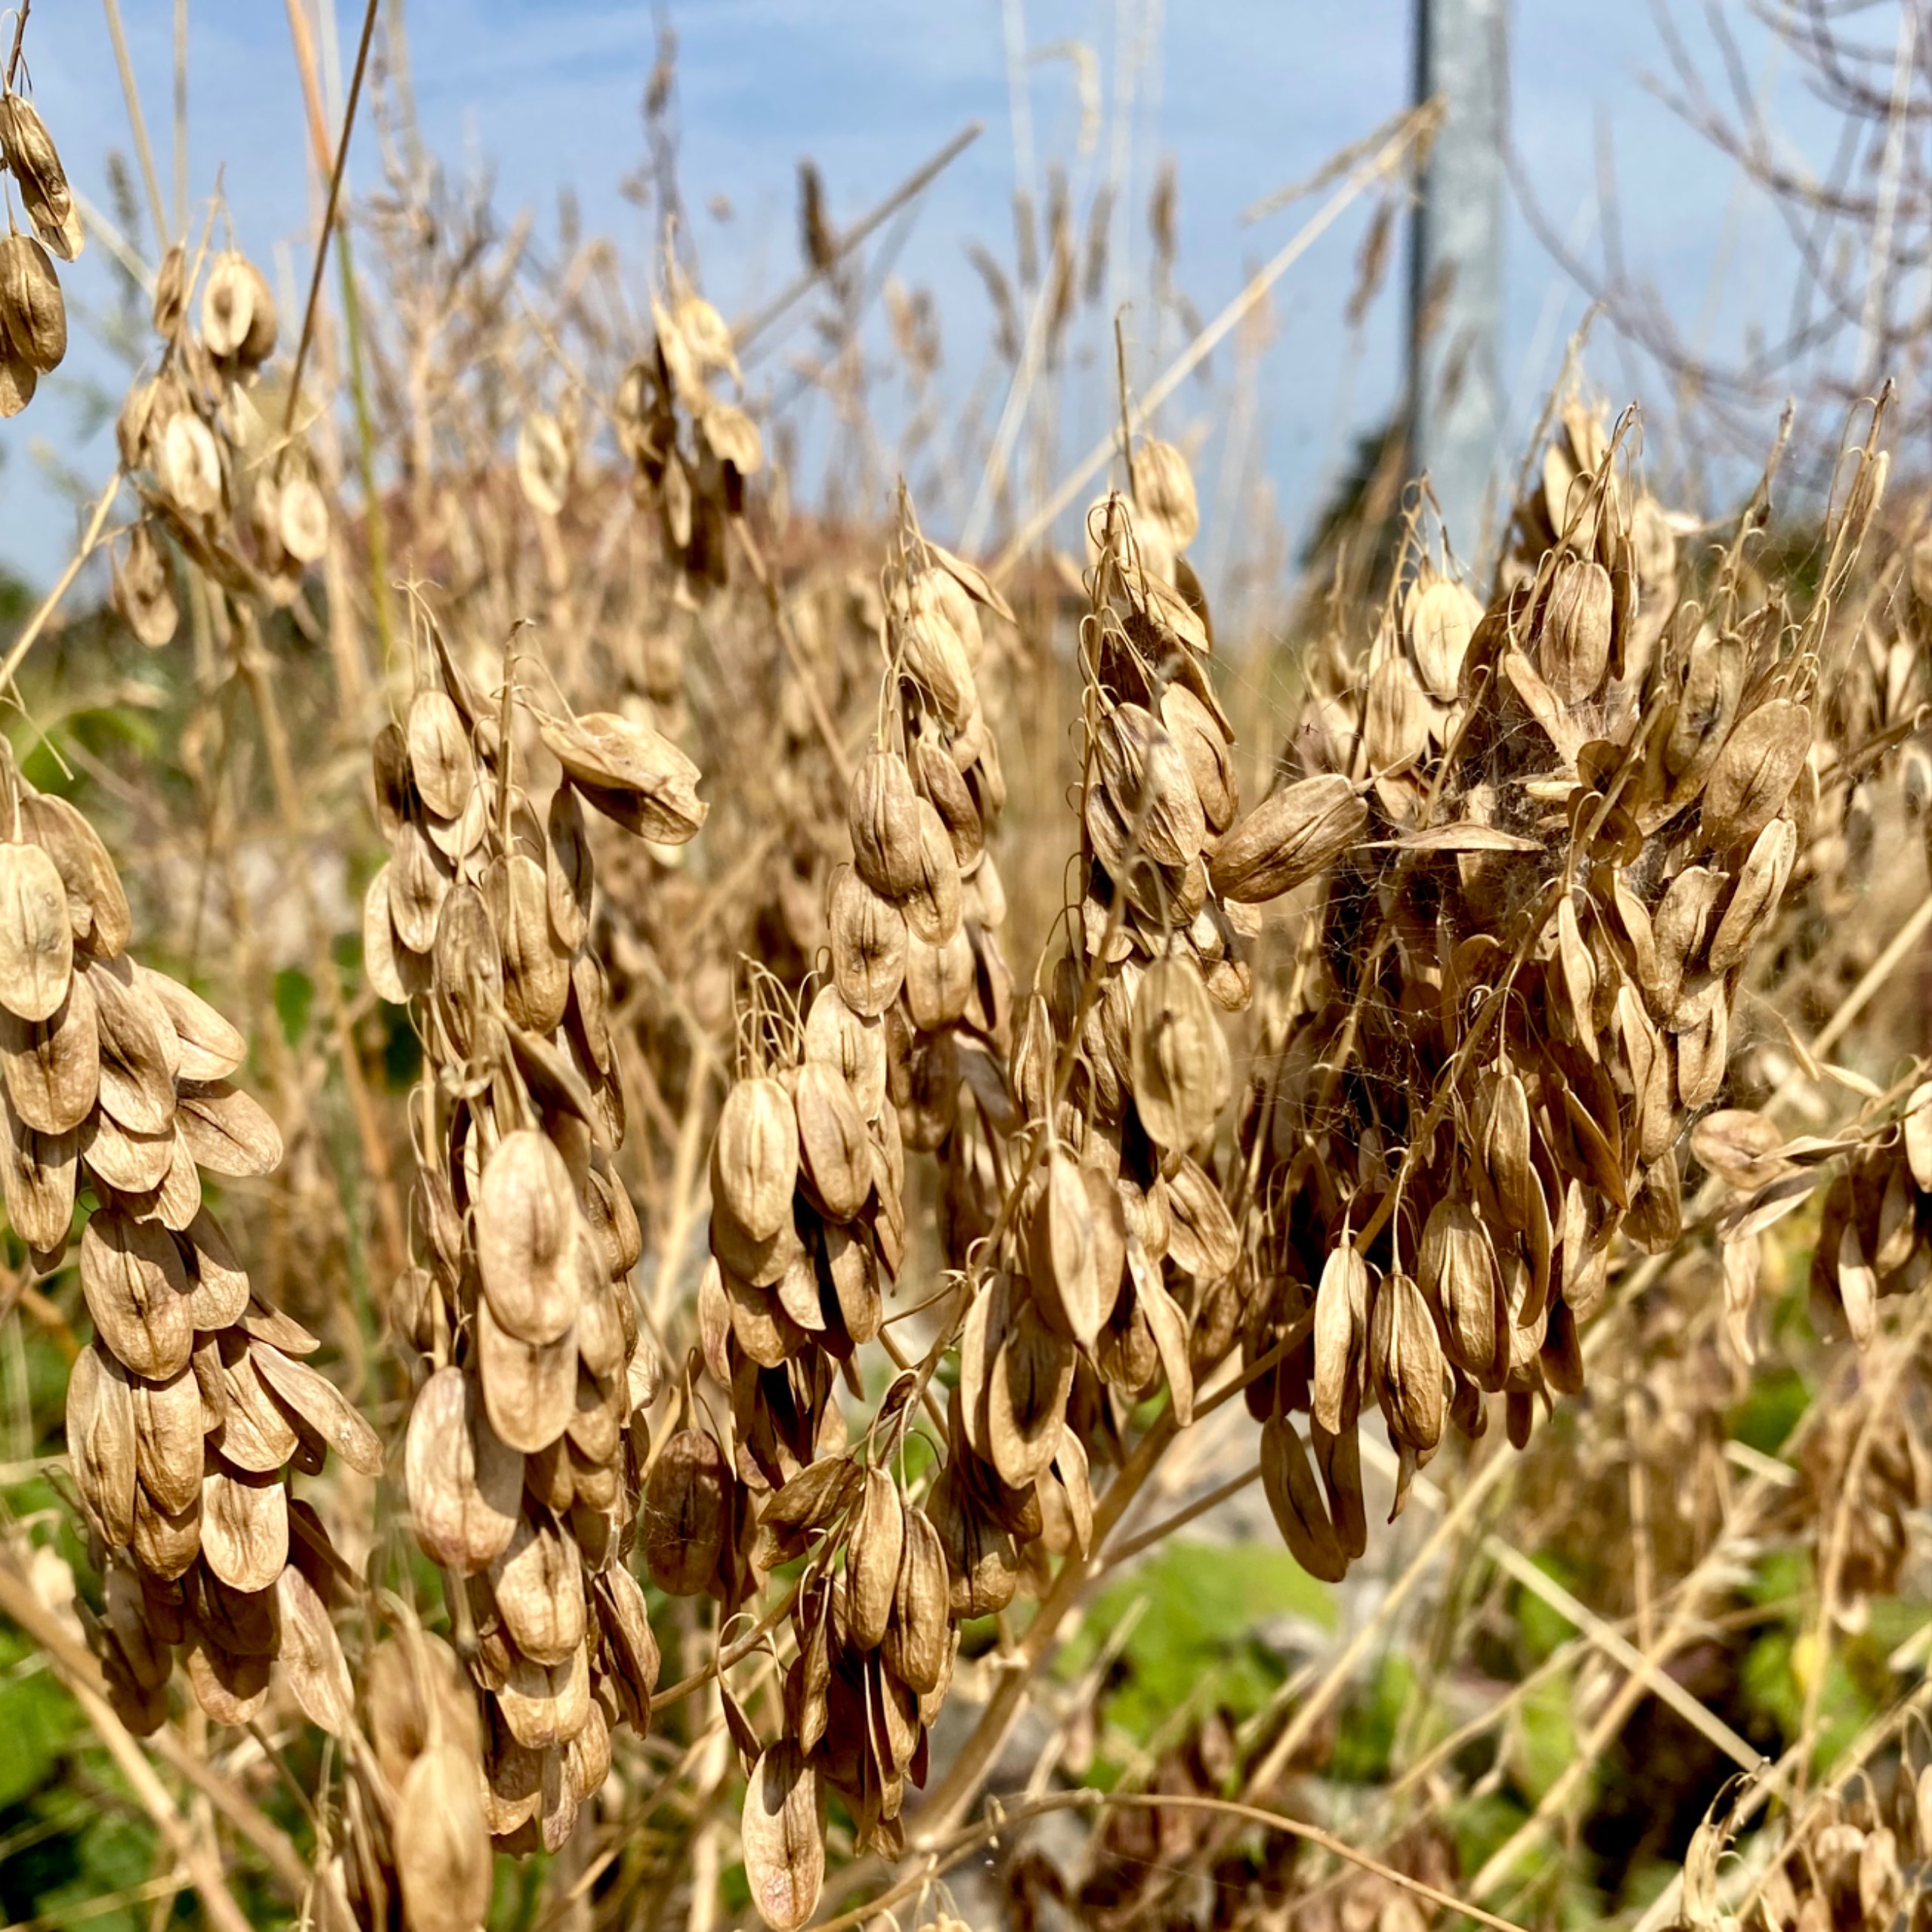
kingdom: Plantae
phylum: Tracheophyta
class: Magnoliopsida
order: Brassicales
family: Brassicaceae
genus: Isatis
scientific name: Isatis tinctoria
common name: Farve-vajd
